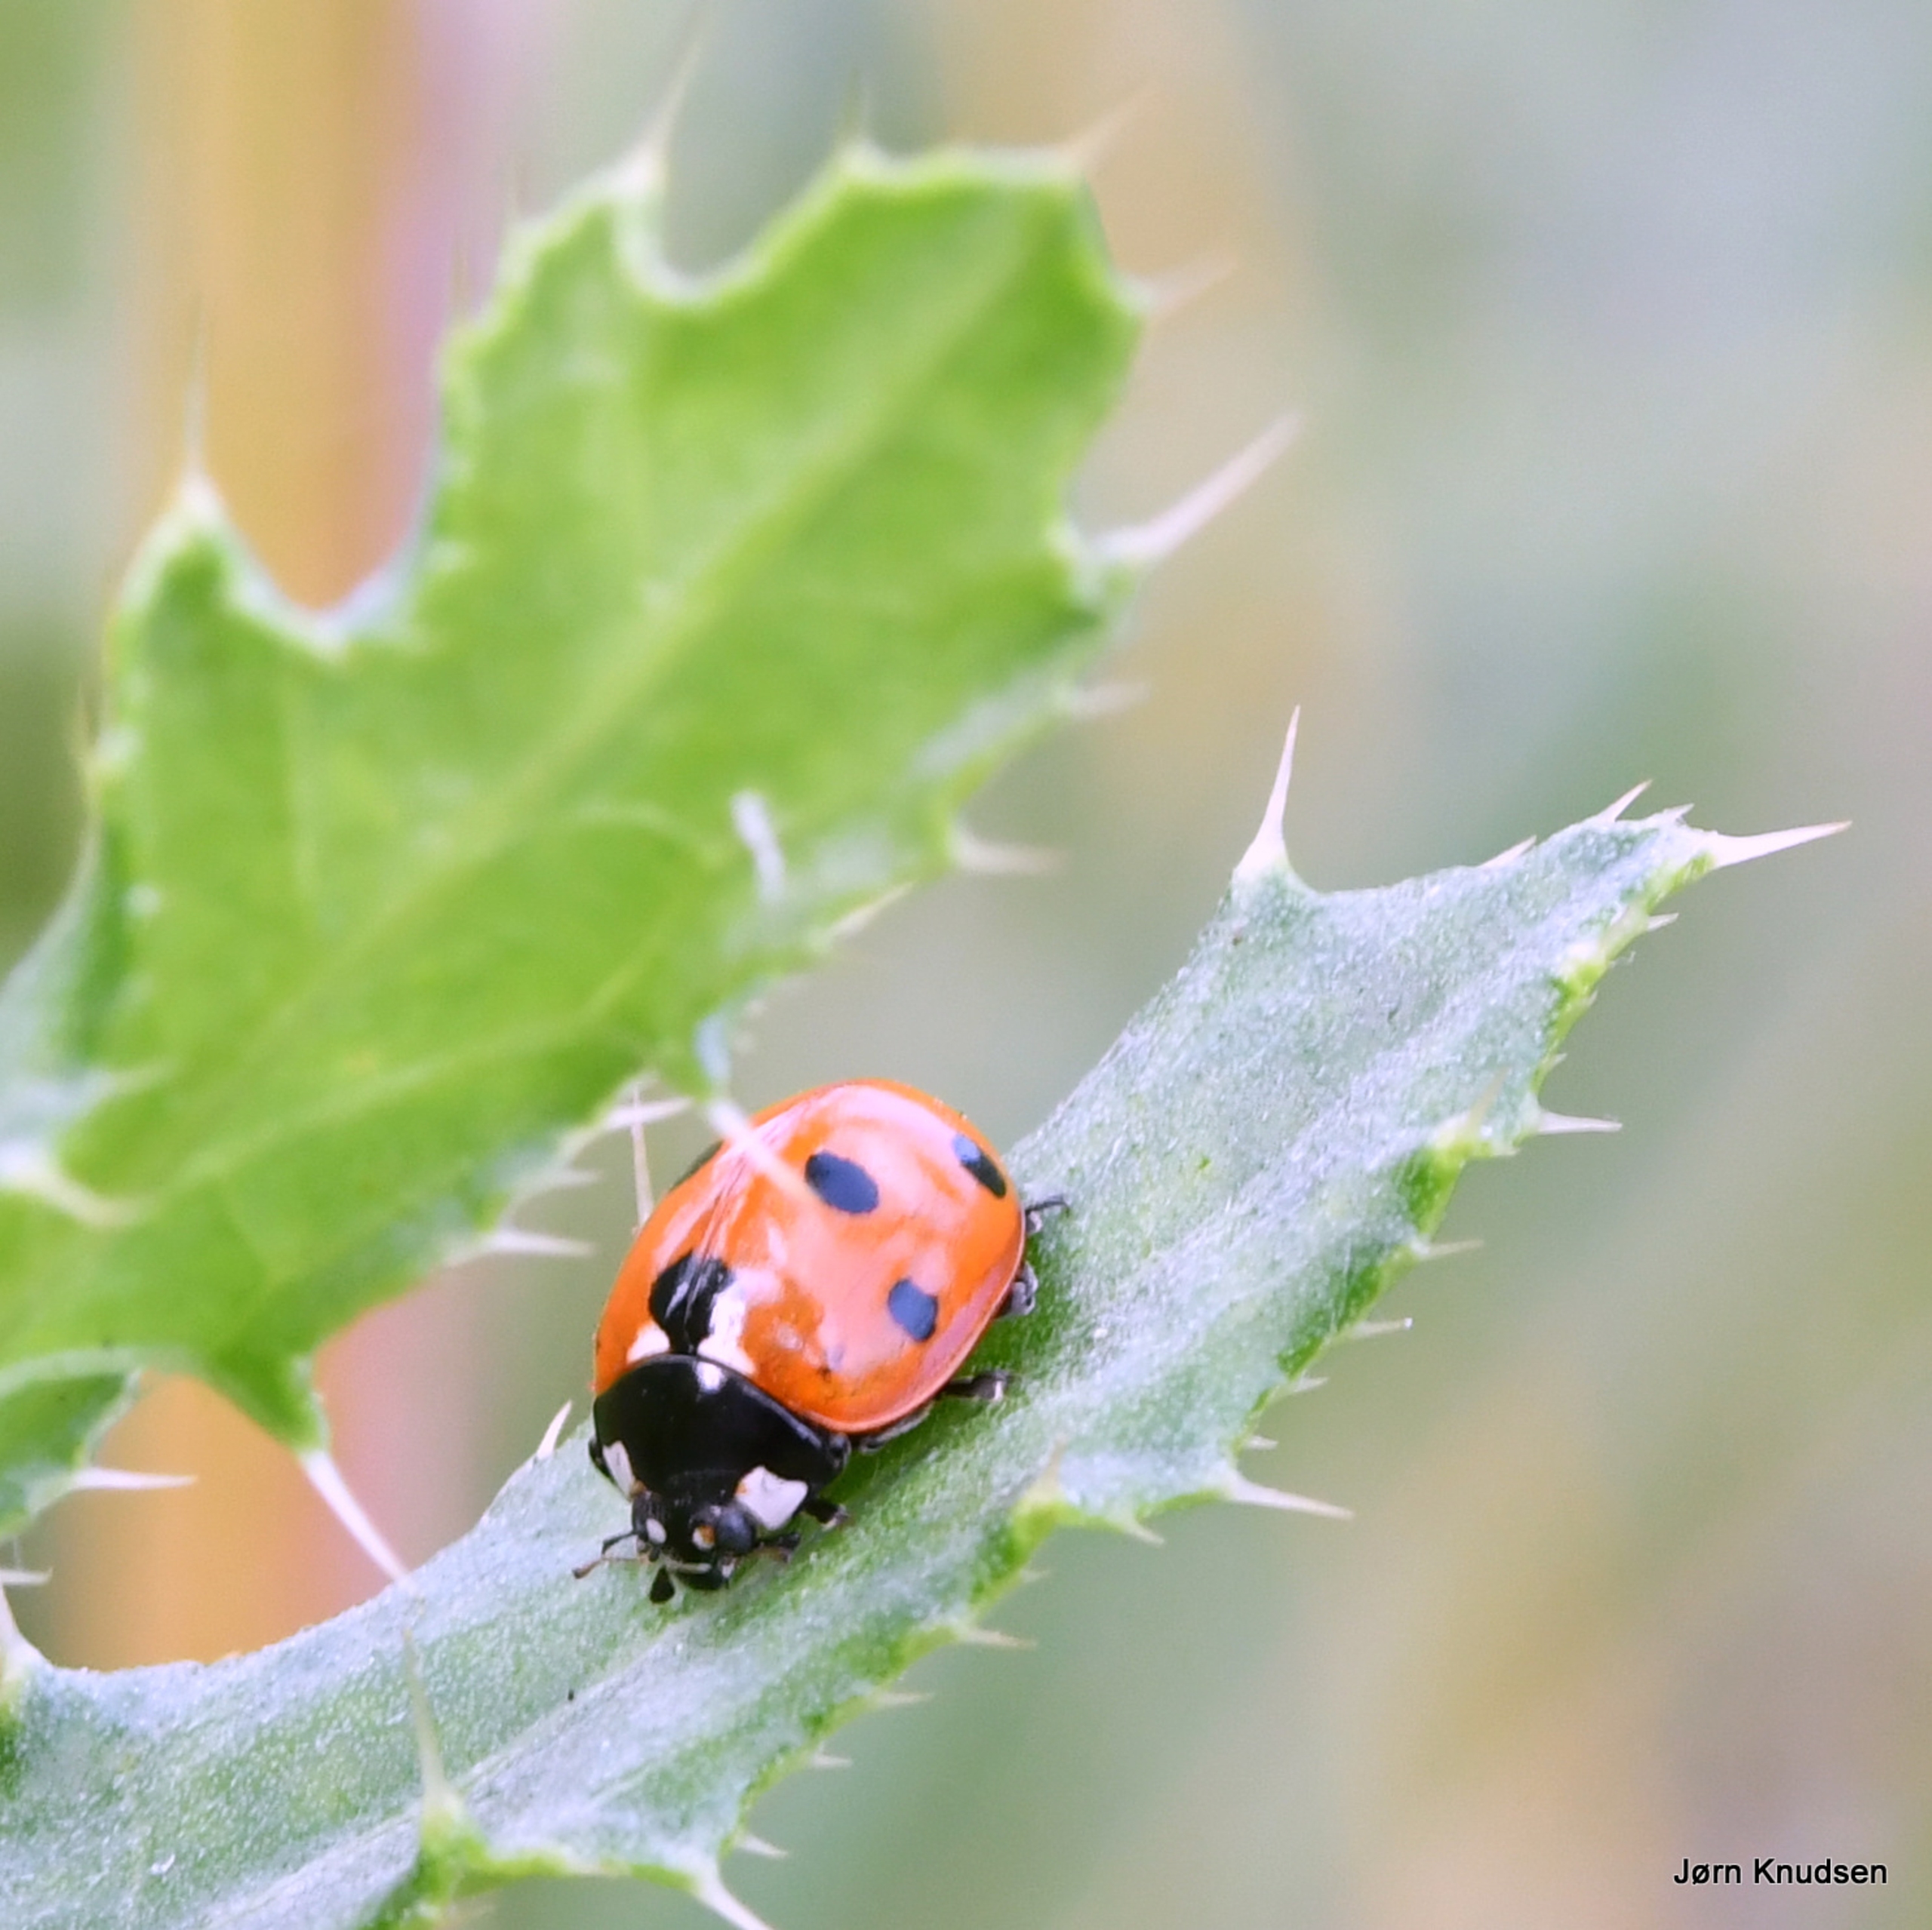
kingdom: Animalia
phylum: Arthropoda
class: Insecta
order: Coleoptera
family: Coccinellidae
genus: Coccinella
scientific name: Coccinella septempunctata
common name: Syvplettet mariehøne
